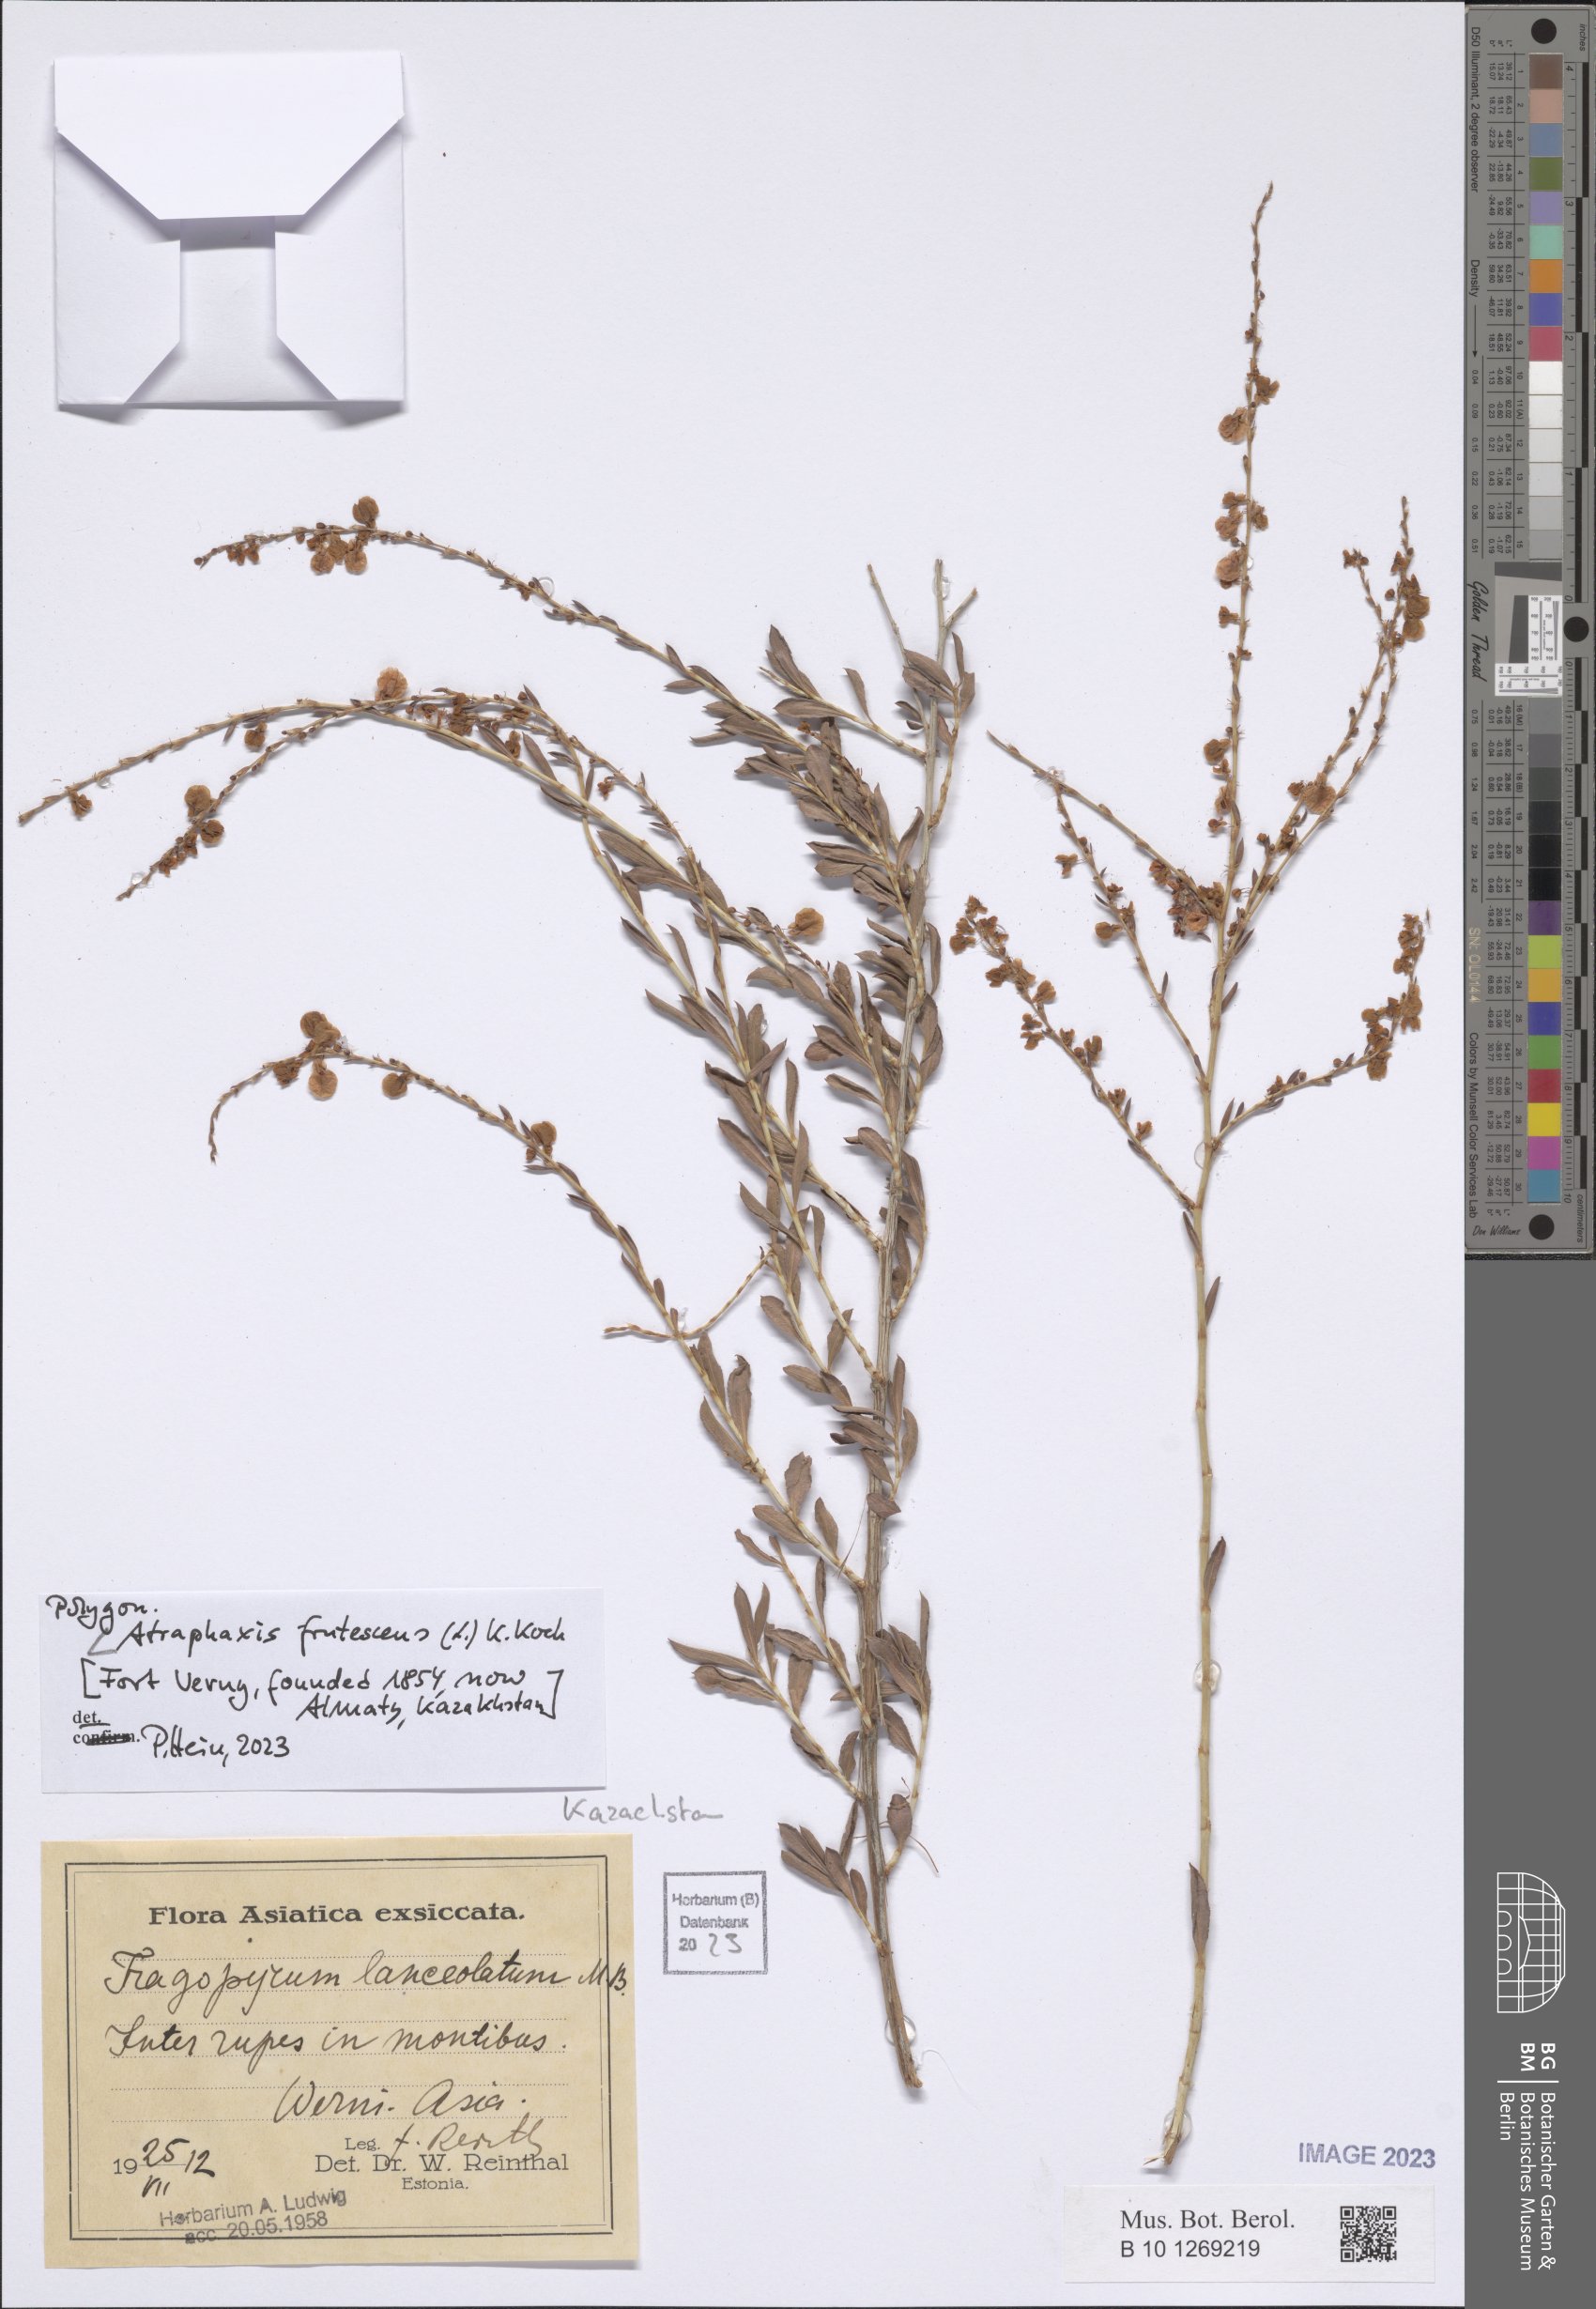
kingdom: Plantae
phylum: Tracheophyta
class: Magnoliopsida
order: Caryophyllales
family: Polygonaceae
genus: Atraphaxis
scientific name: Atraphaxis frutescens
